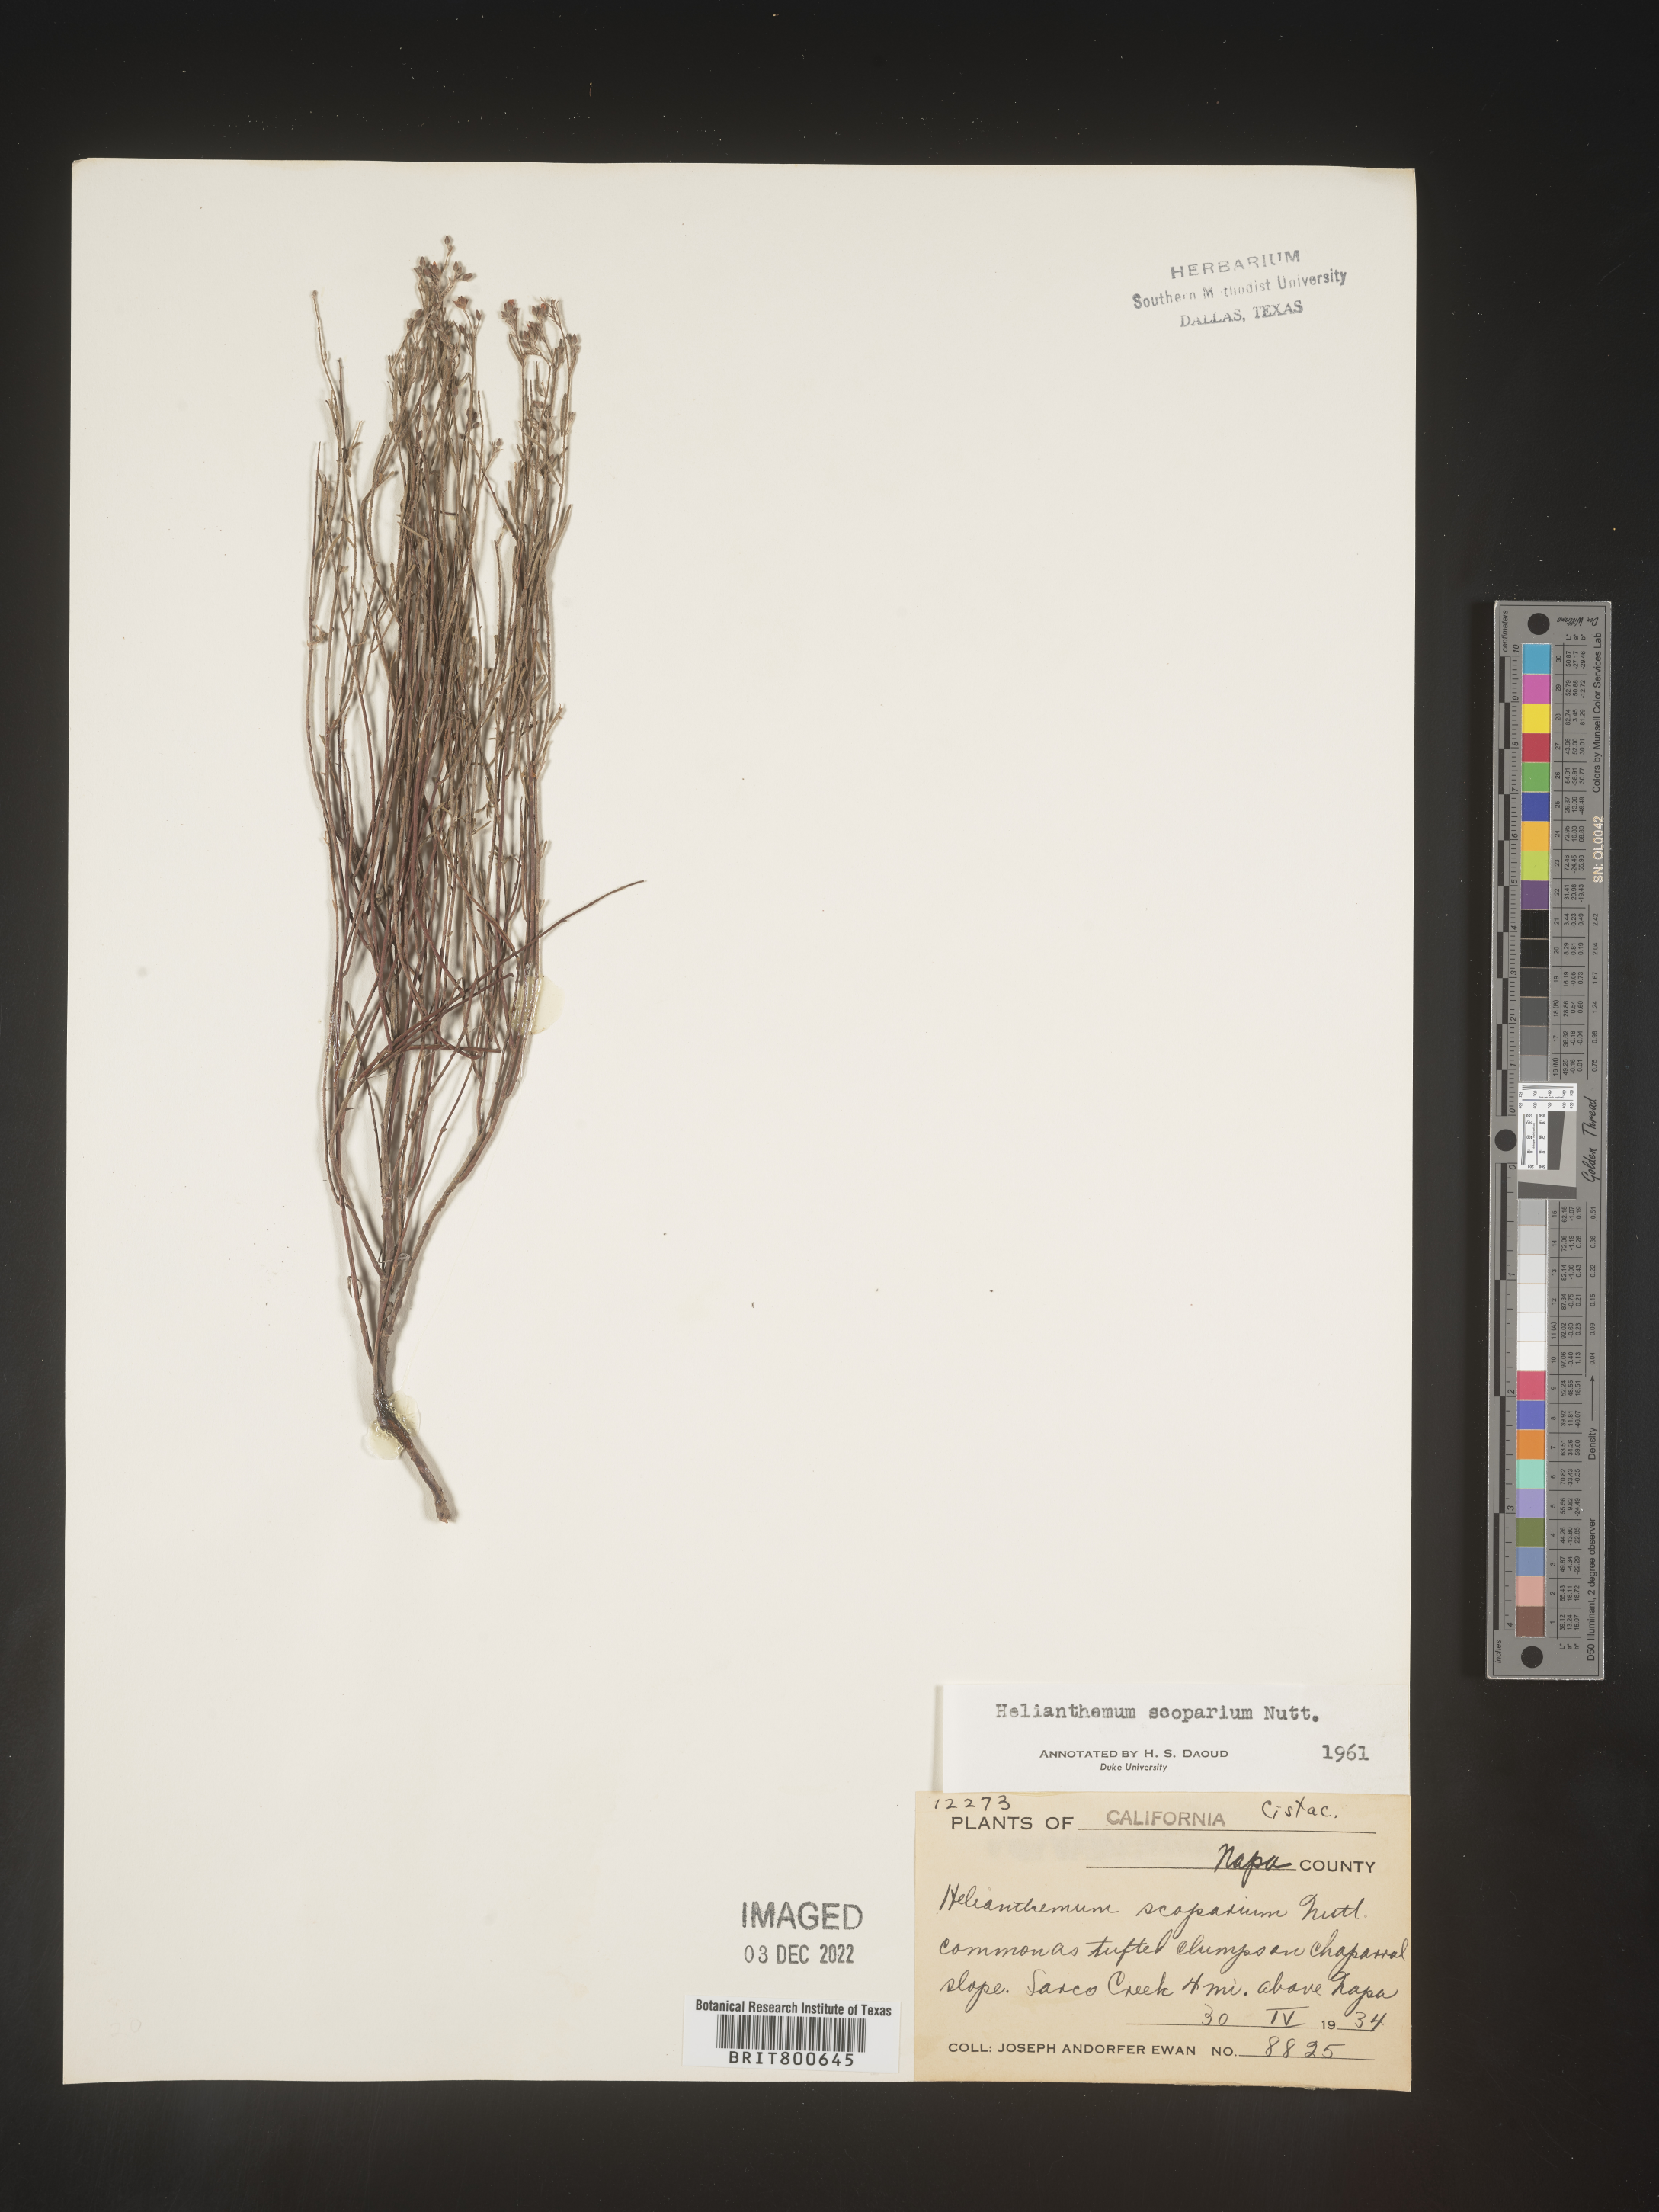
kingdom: Plantae
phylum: Tracheophyta
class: Magnoliopsida
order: Malvales
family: Cistaceae
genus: Helianthemum
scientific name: Helianthemum
